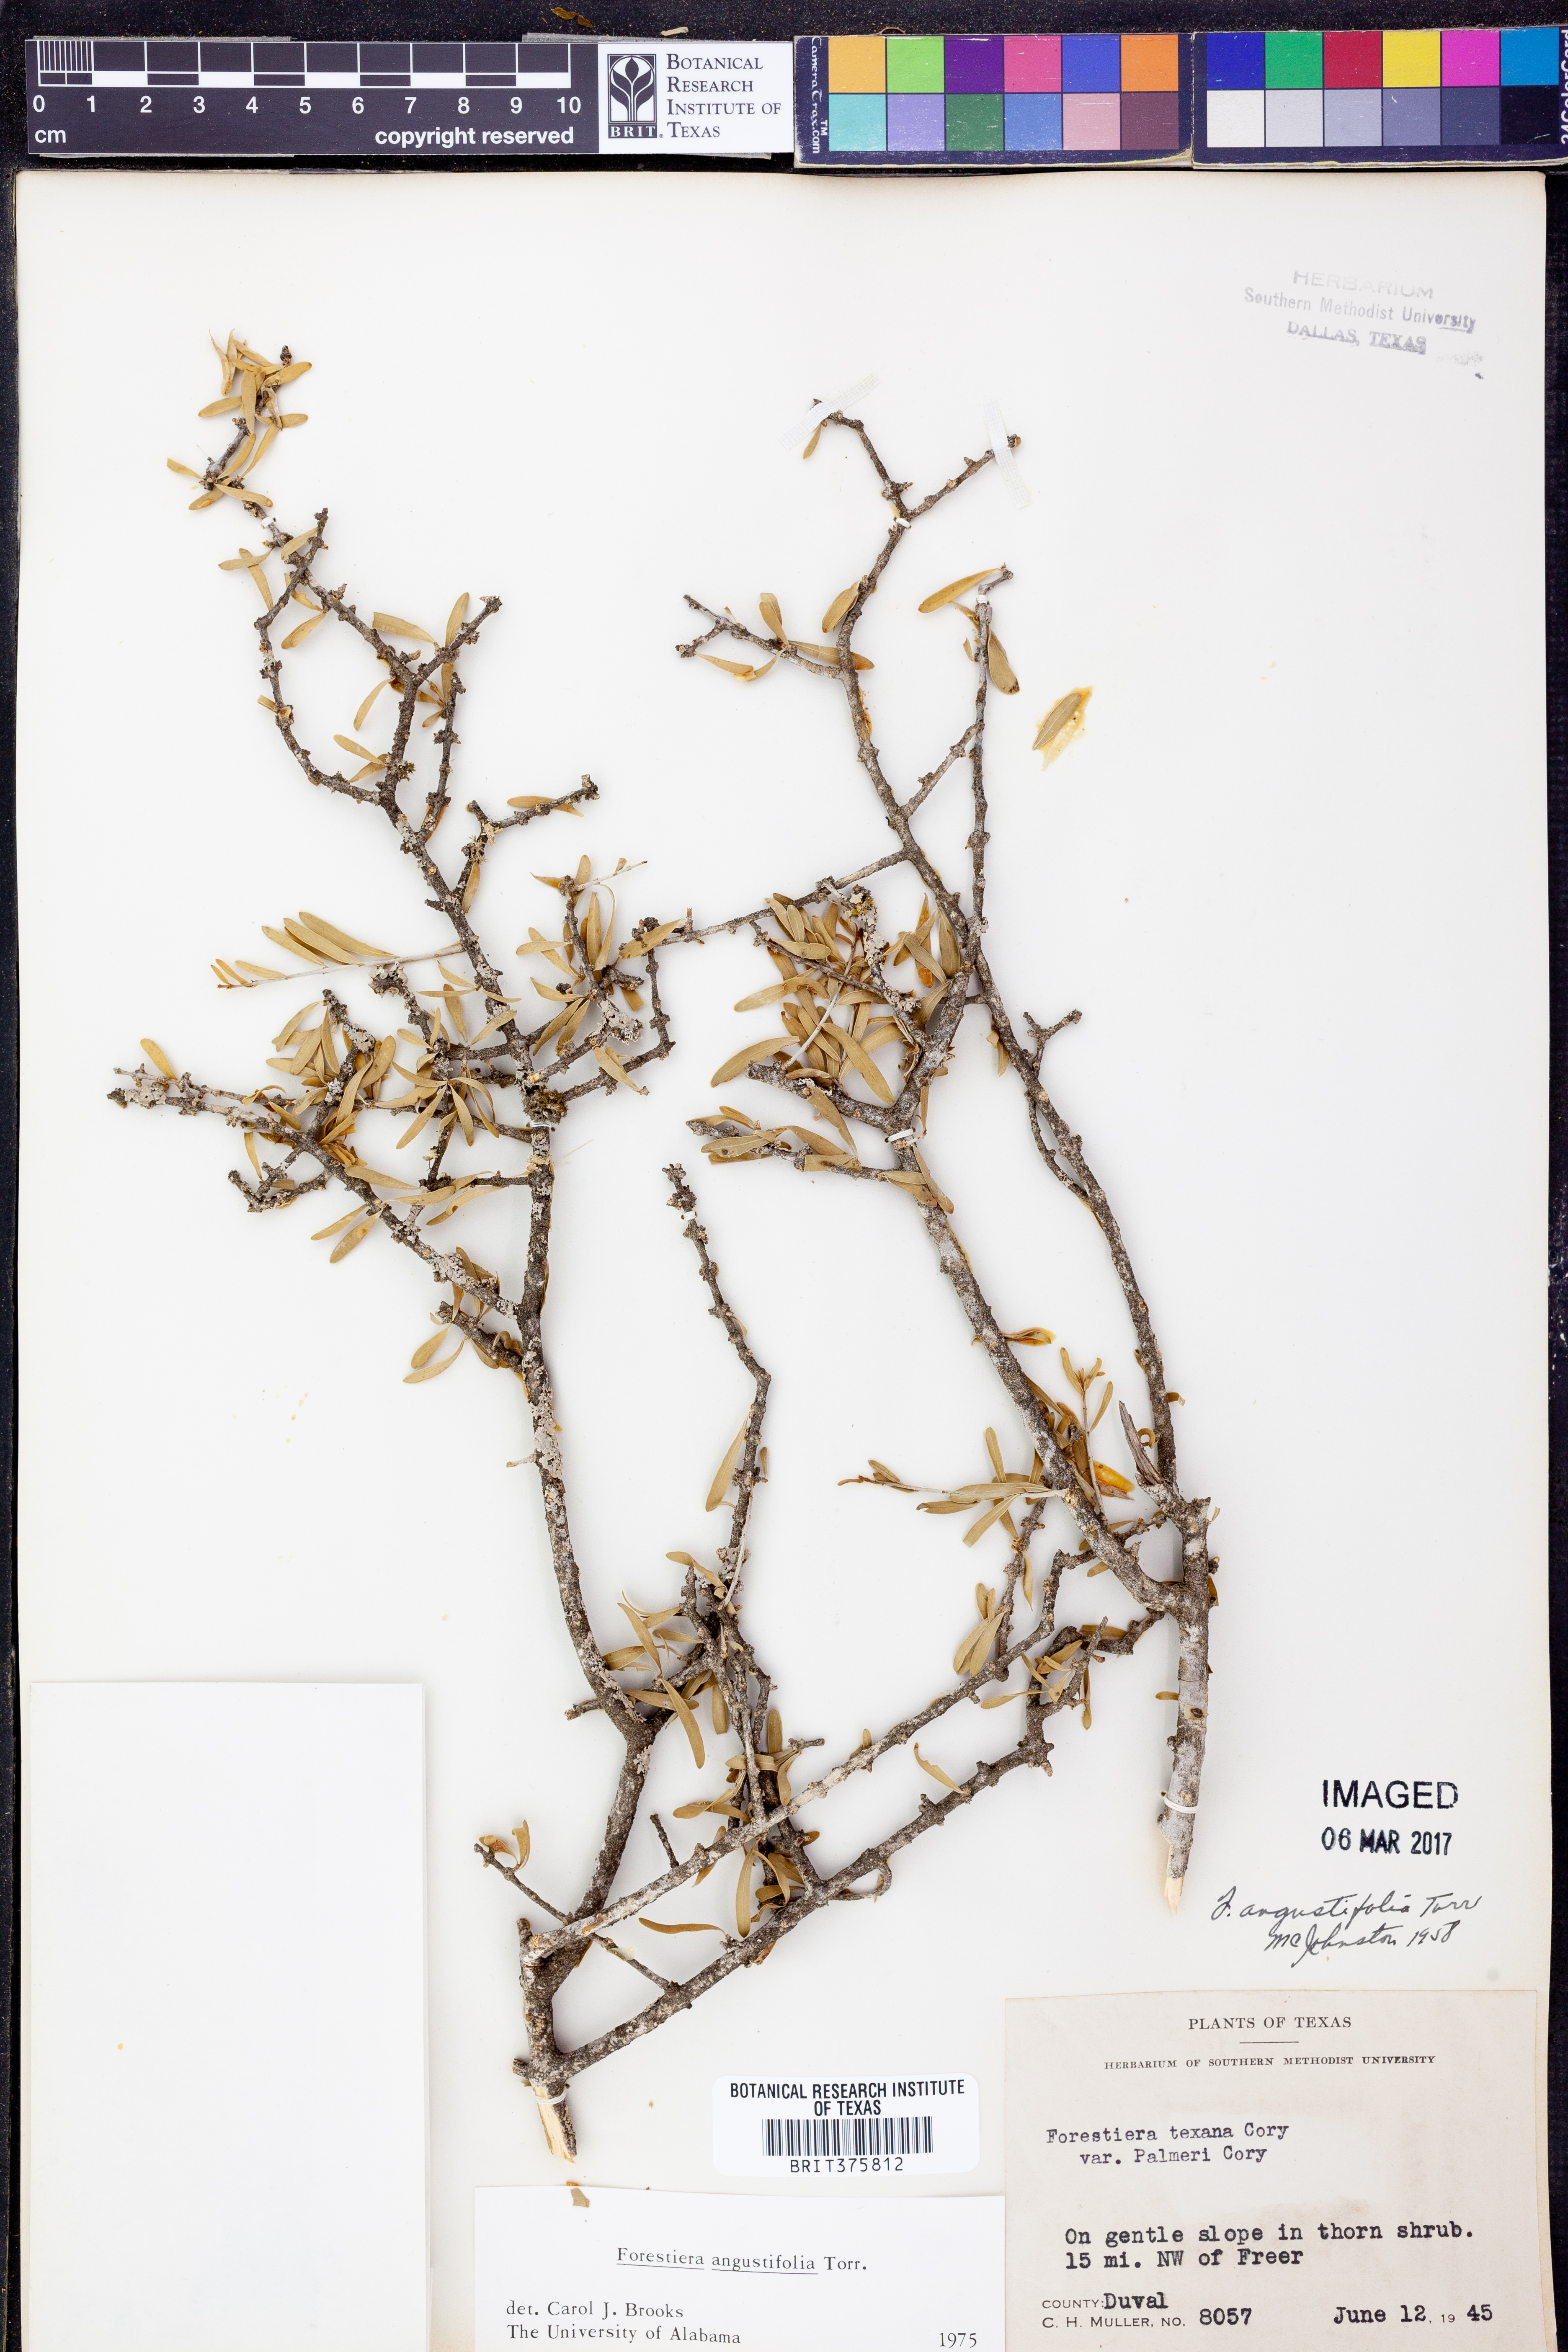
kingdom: Plantae
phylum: Tracheophyta
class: Magnoliopsida
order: Lamiales
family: Oleaceae
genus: Forestiera
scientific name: Forestiera angustifolia
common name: Elbowbush
